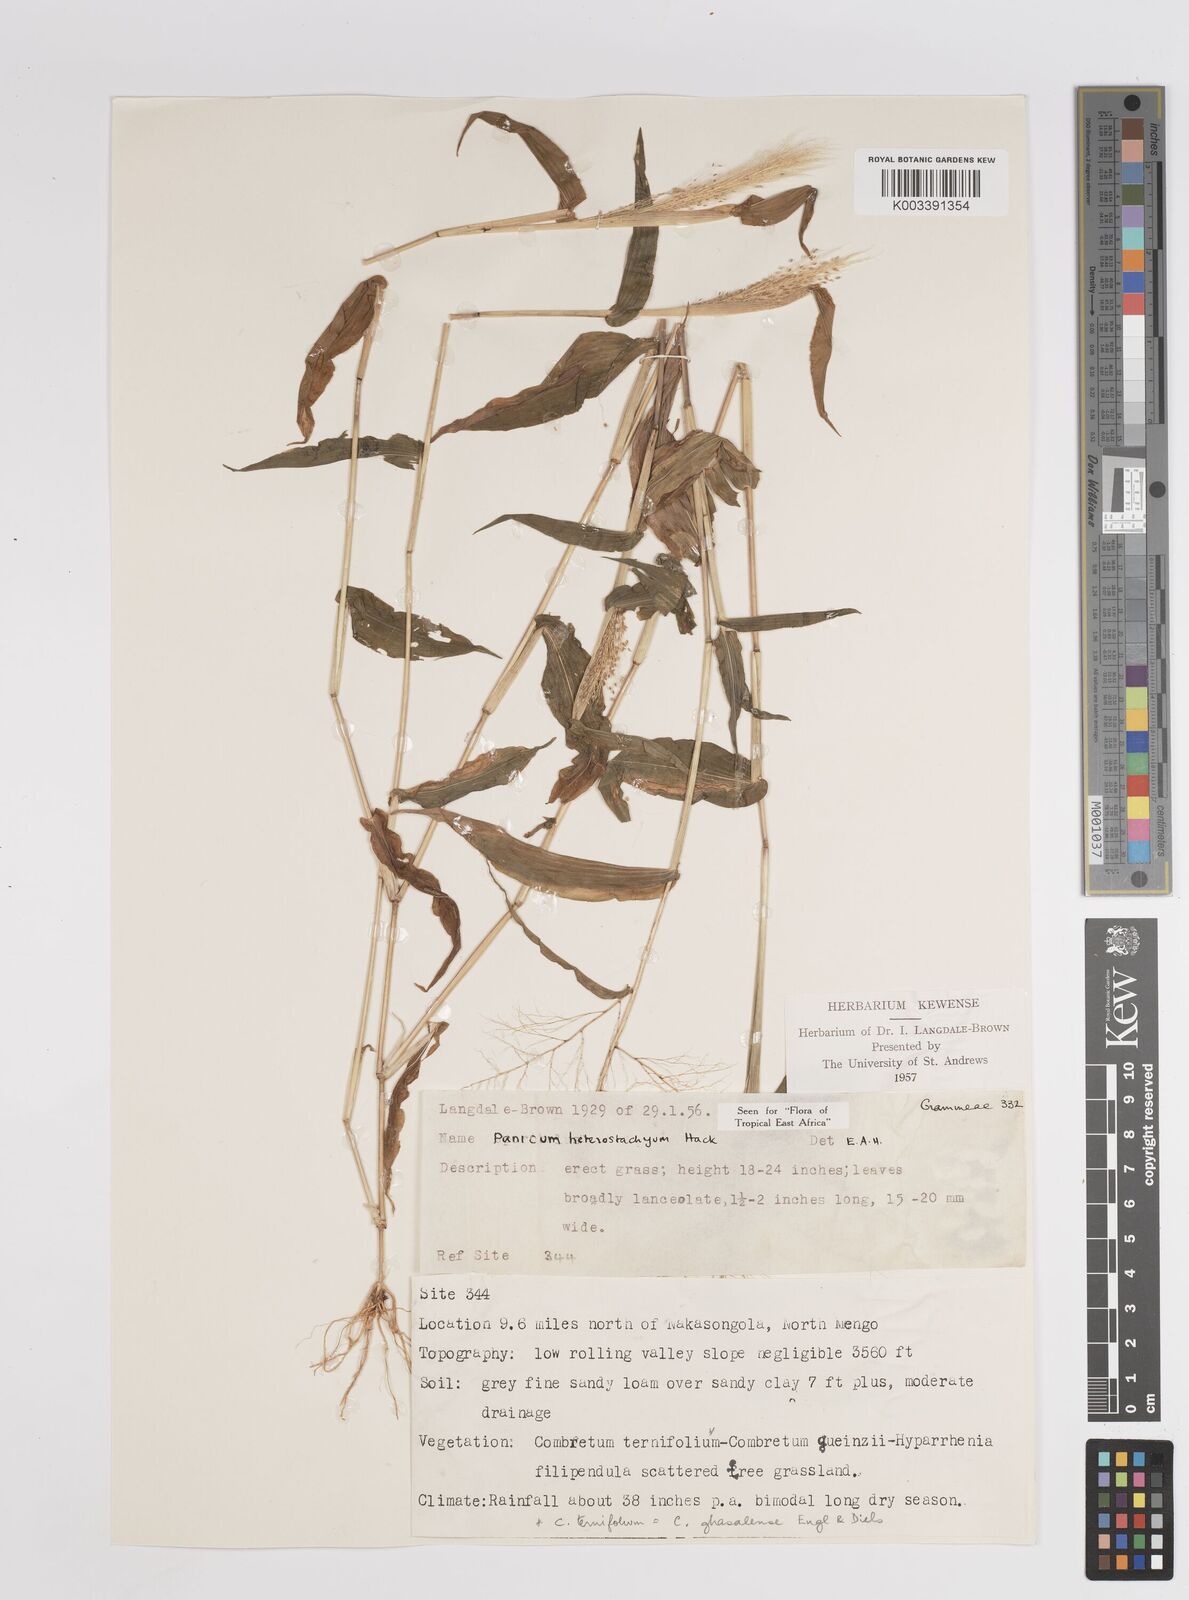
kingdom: Plantae
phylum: Tracheophyta
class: Liliopsida
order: Poales
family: Poaceae
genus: Panicum
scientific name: Panicum hirtum
